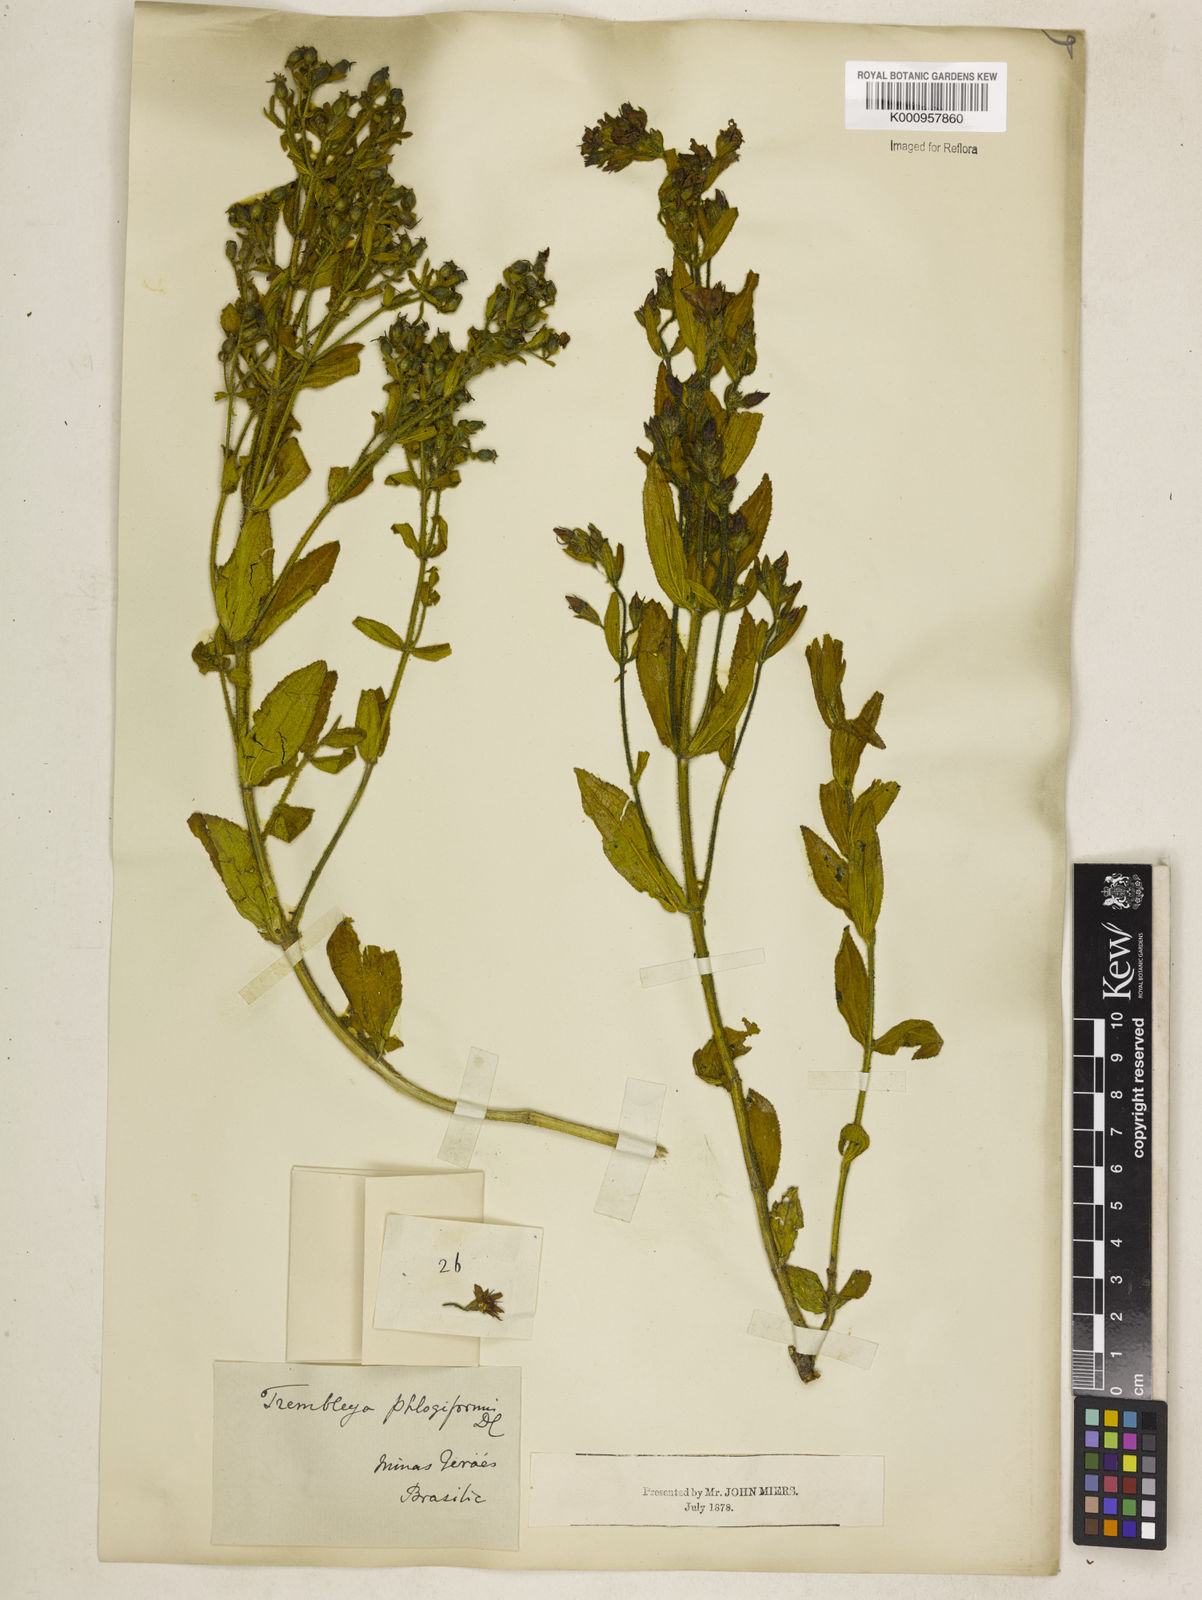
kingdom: Plantae
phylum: Tracheophyta
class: Magnoliopsida
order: Myrtales
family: Melastomataceae
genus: Microlicia
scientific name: Microlicia phlogiformis
